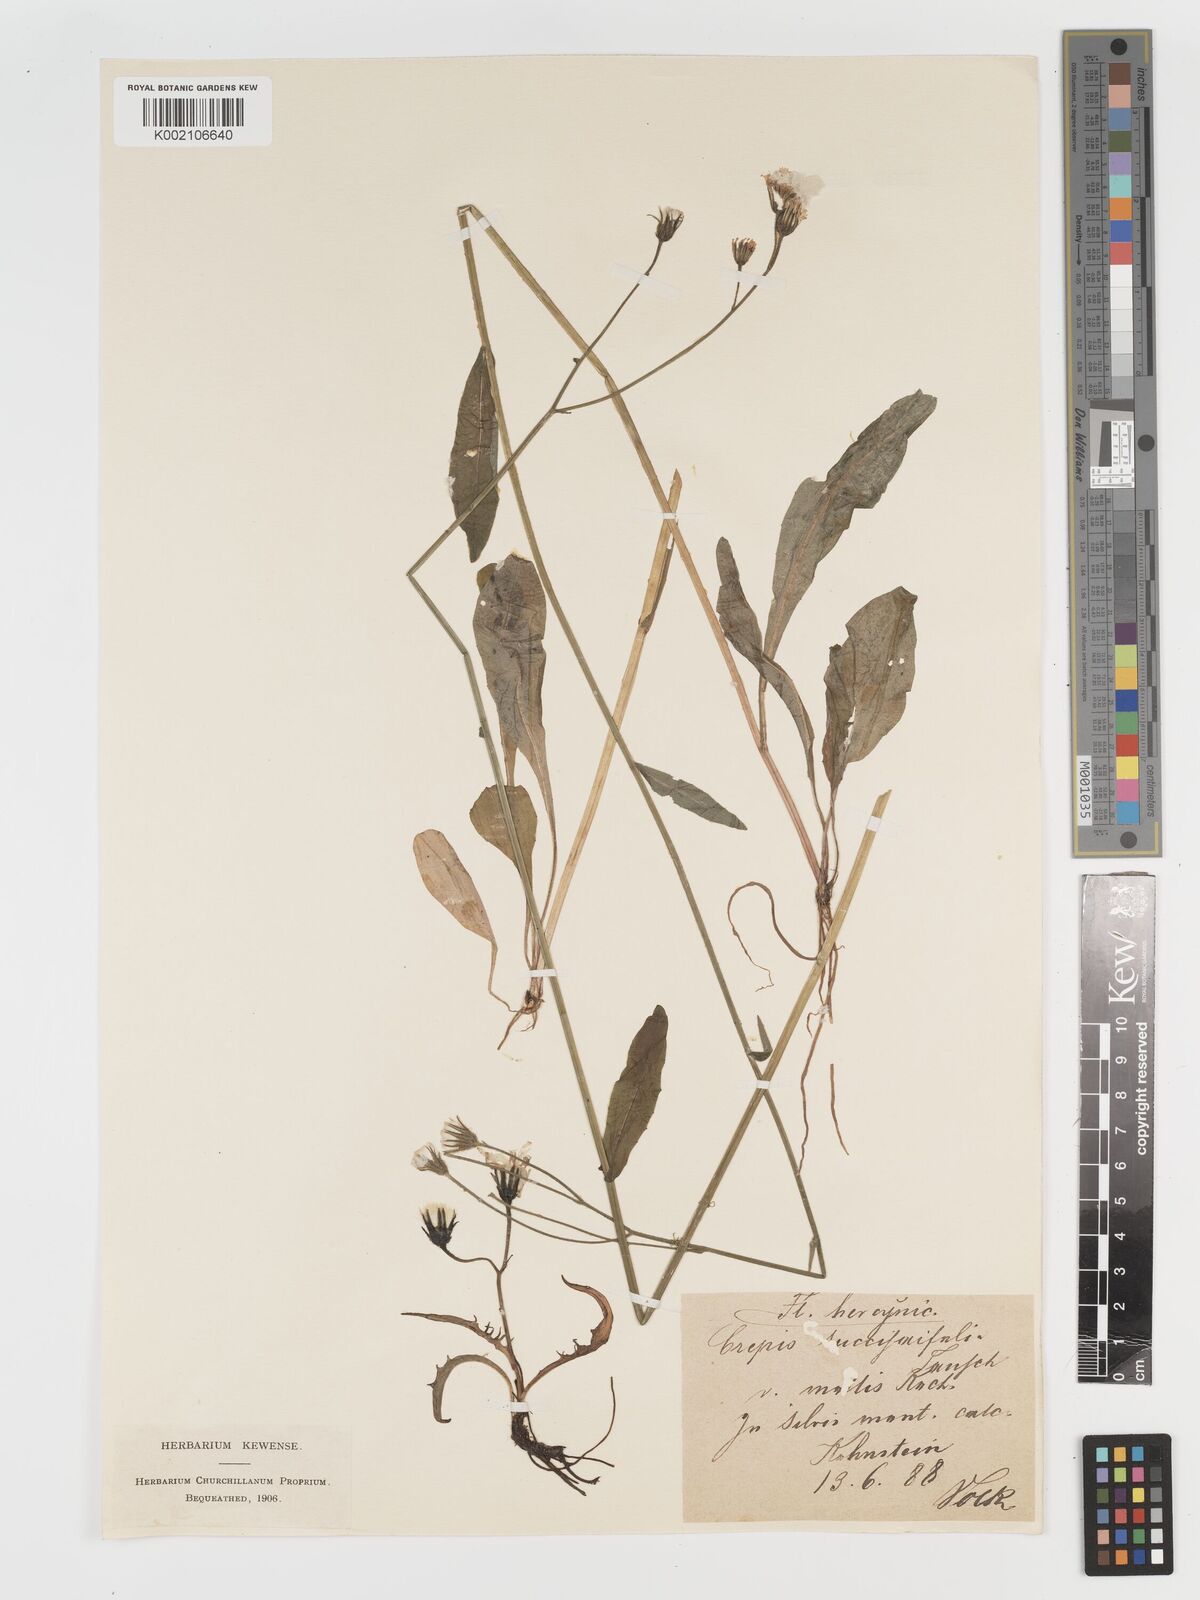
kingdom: Plantae
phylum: Tracheophyta
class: Magnoliopsida
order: Asterales
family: Asteraceae
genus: Crepis
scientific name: Crepis mollis
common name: Northern hawk's-beard
